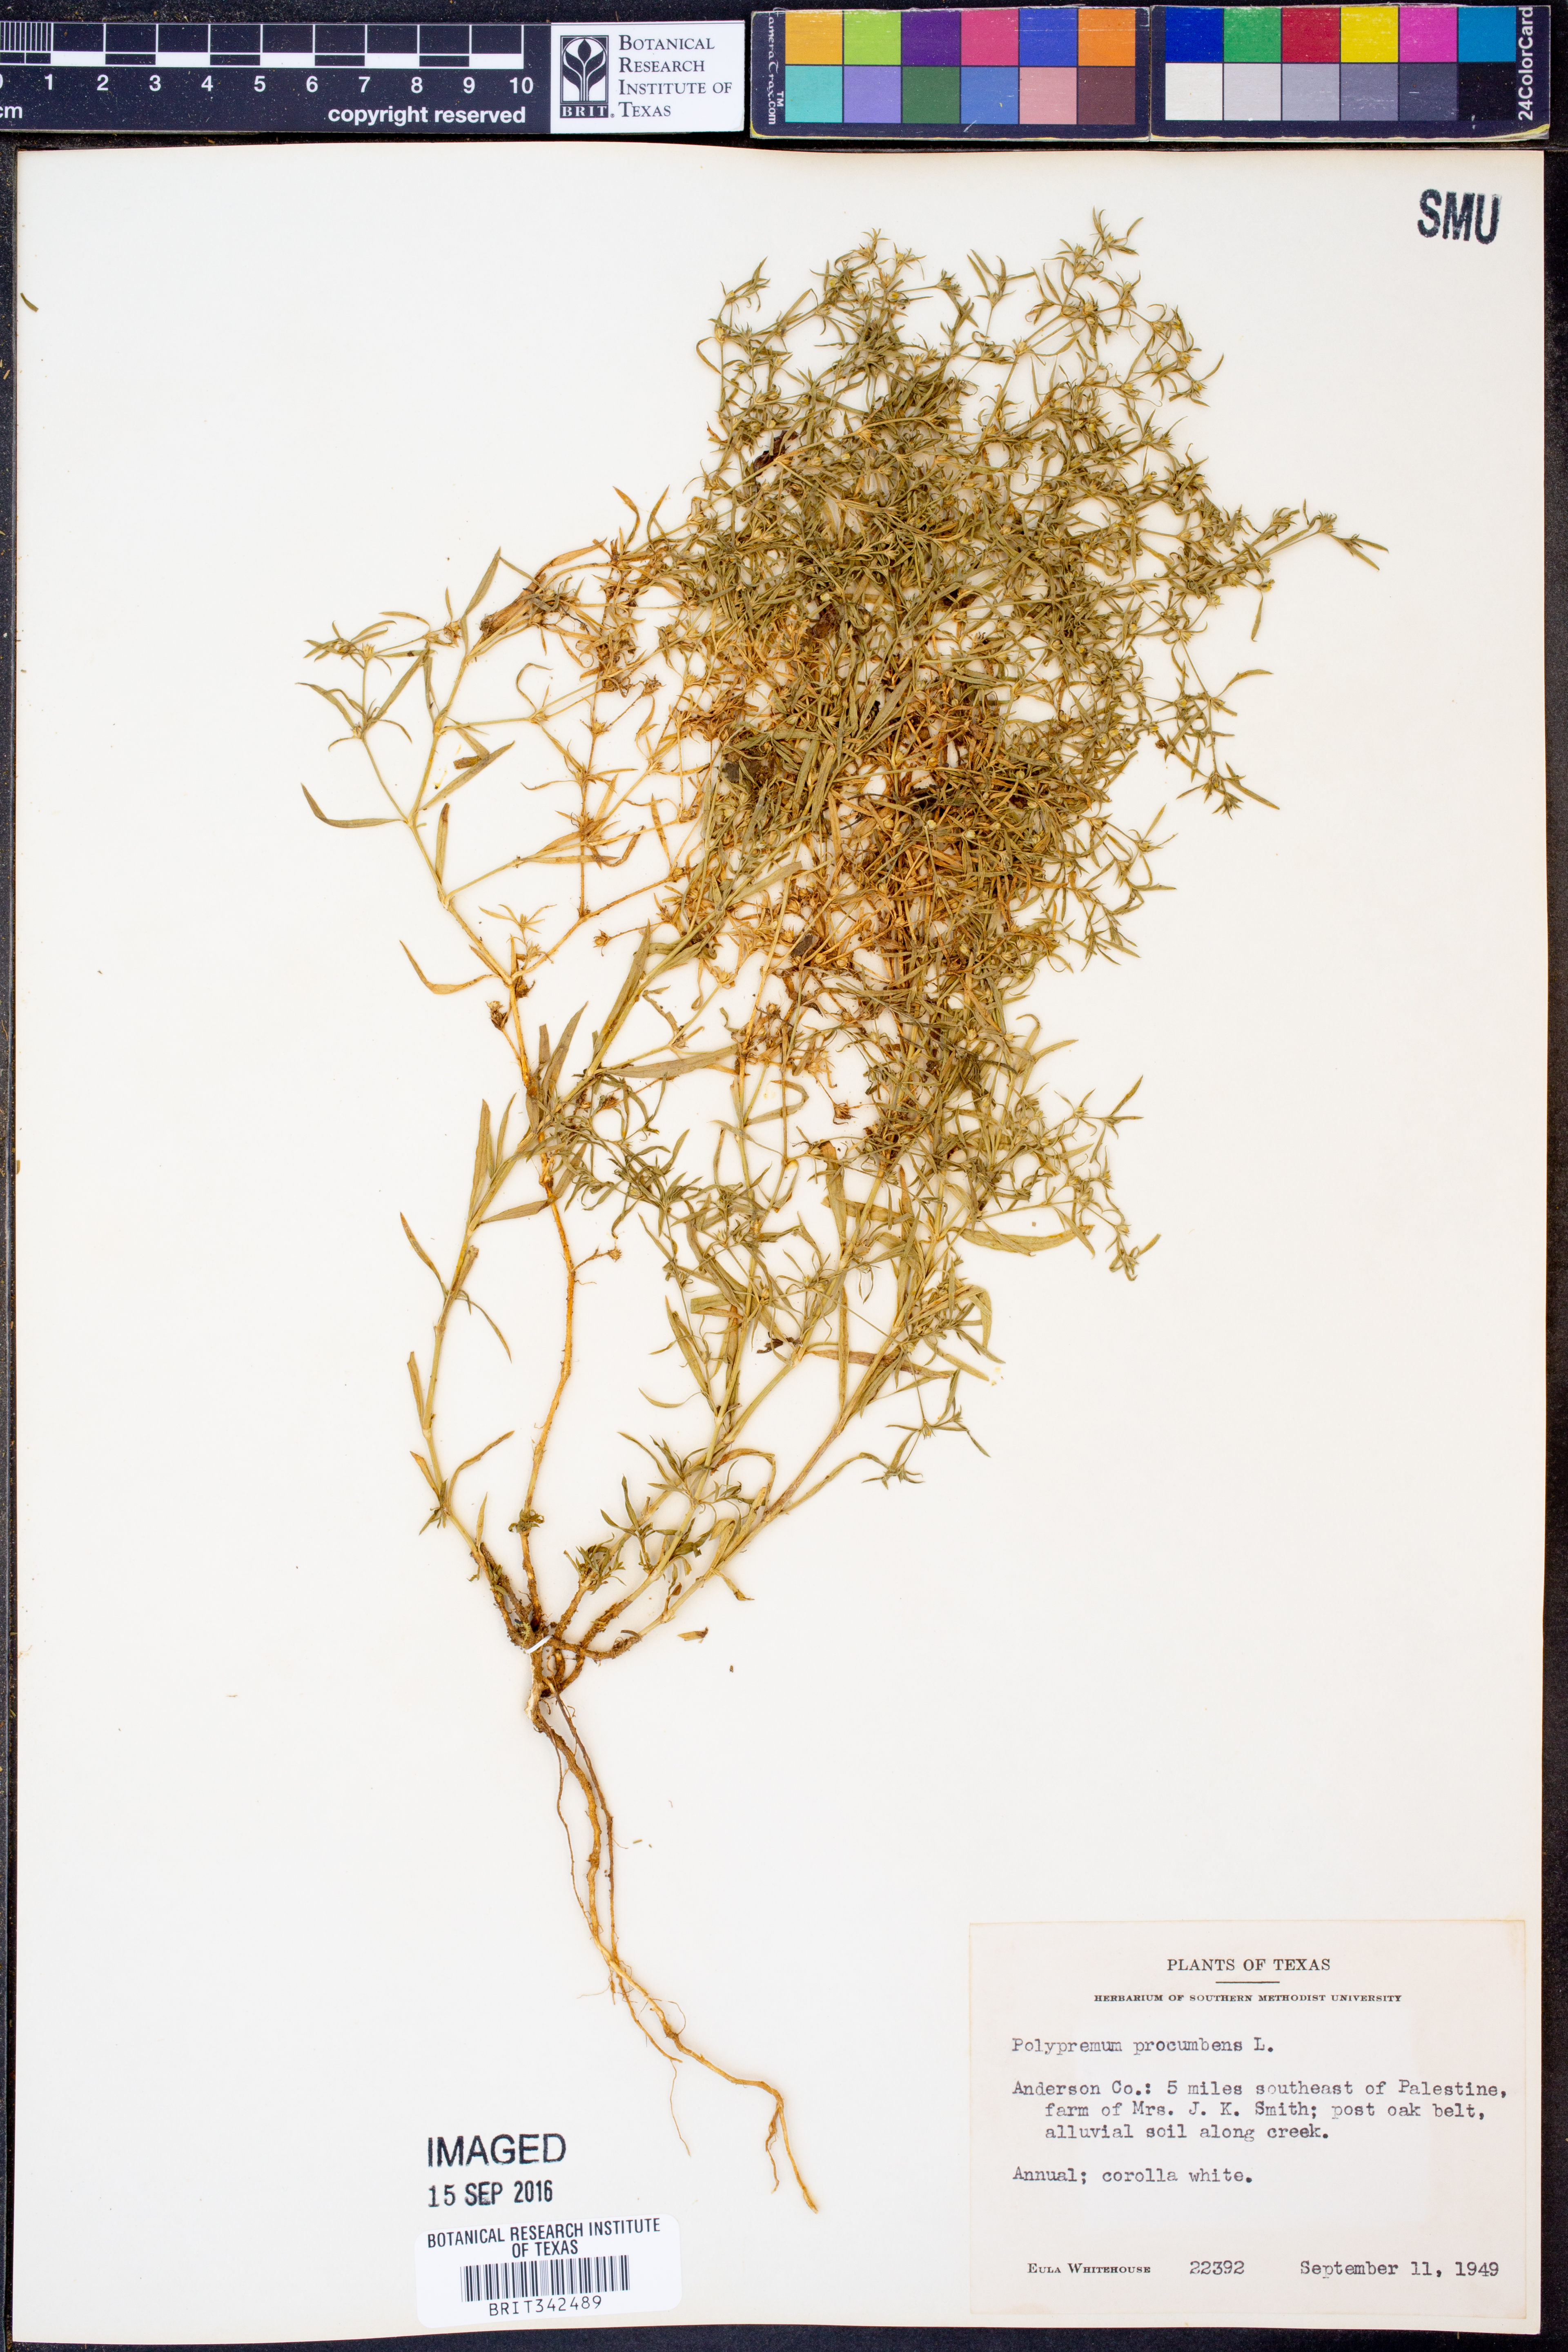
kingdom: Plantae
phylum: Tracheophyta
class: Magnoliopsida
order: Lamiales
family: Tetrachondraceae
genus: Polypremum
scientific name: Polypremum procumbens
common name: Juniper-leaf
